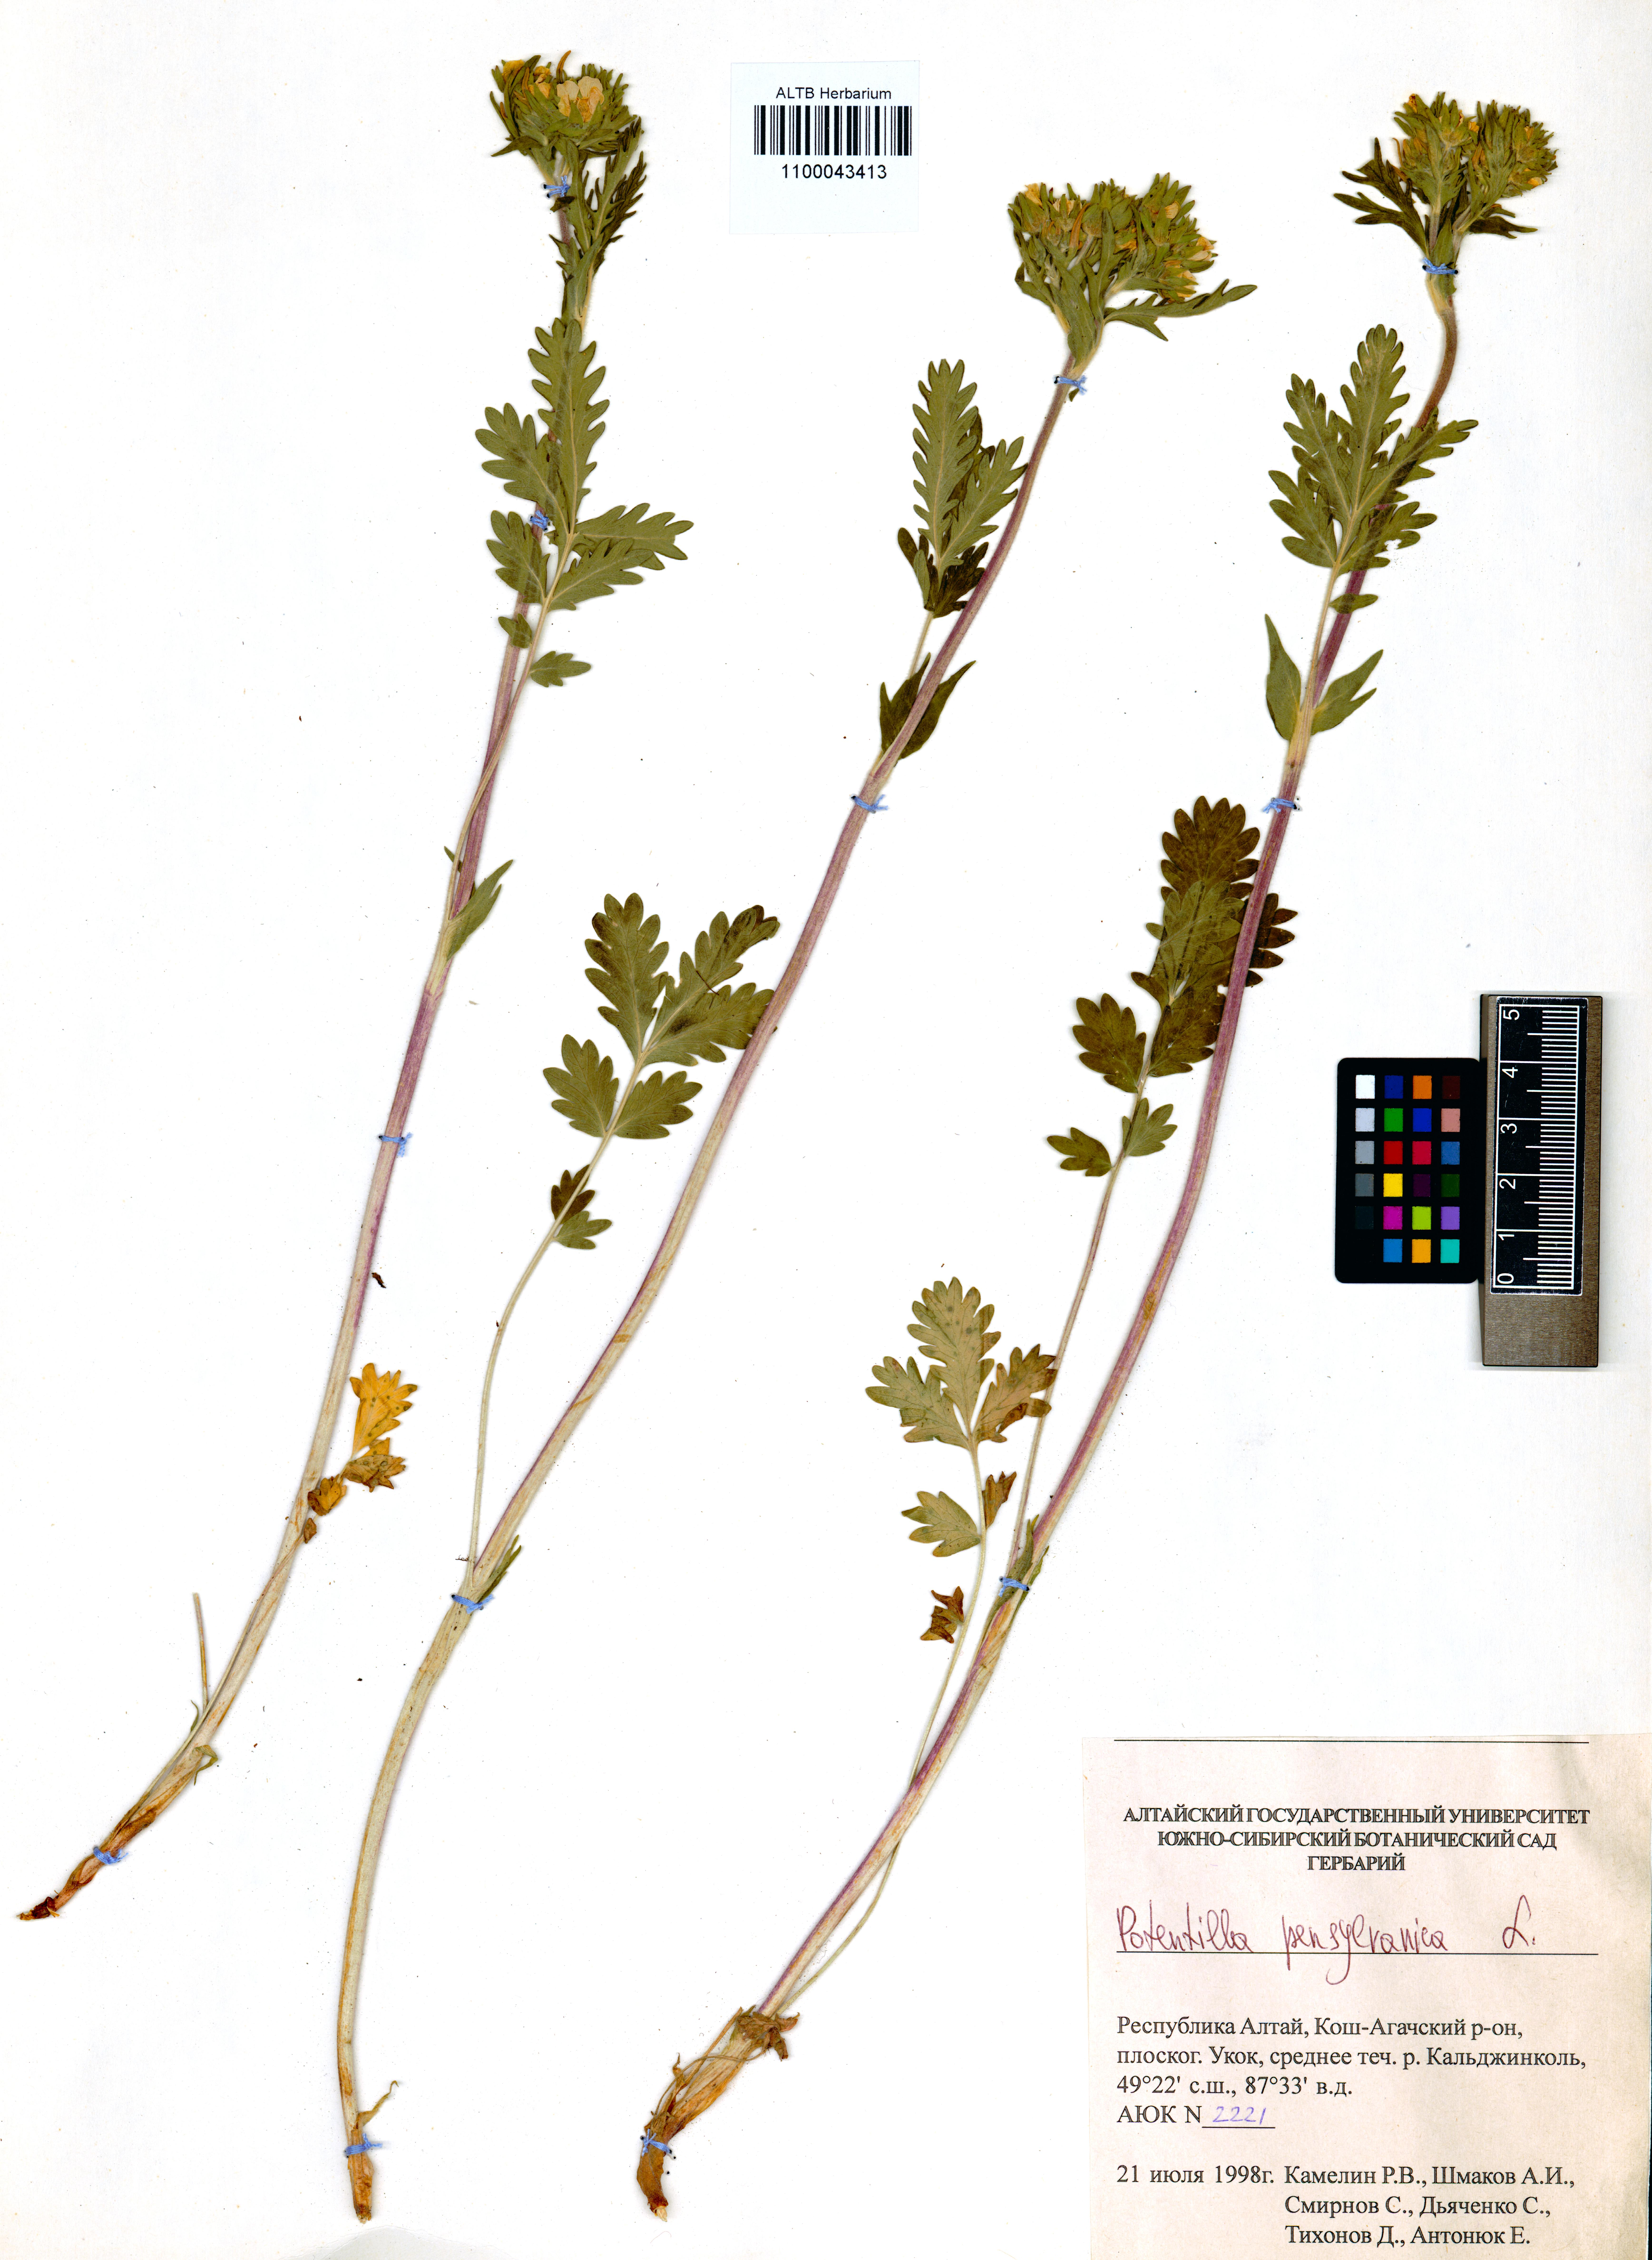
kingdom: Plantae
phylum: Tracheophyta
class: Magnoliopsida
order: Rosales
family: Rosaceae
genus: Potentilla
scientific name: Potentilla pensylvanica
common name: Pennsylvania cinquefoil
